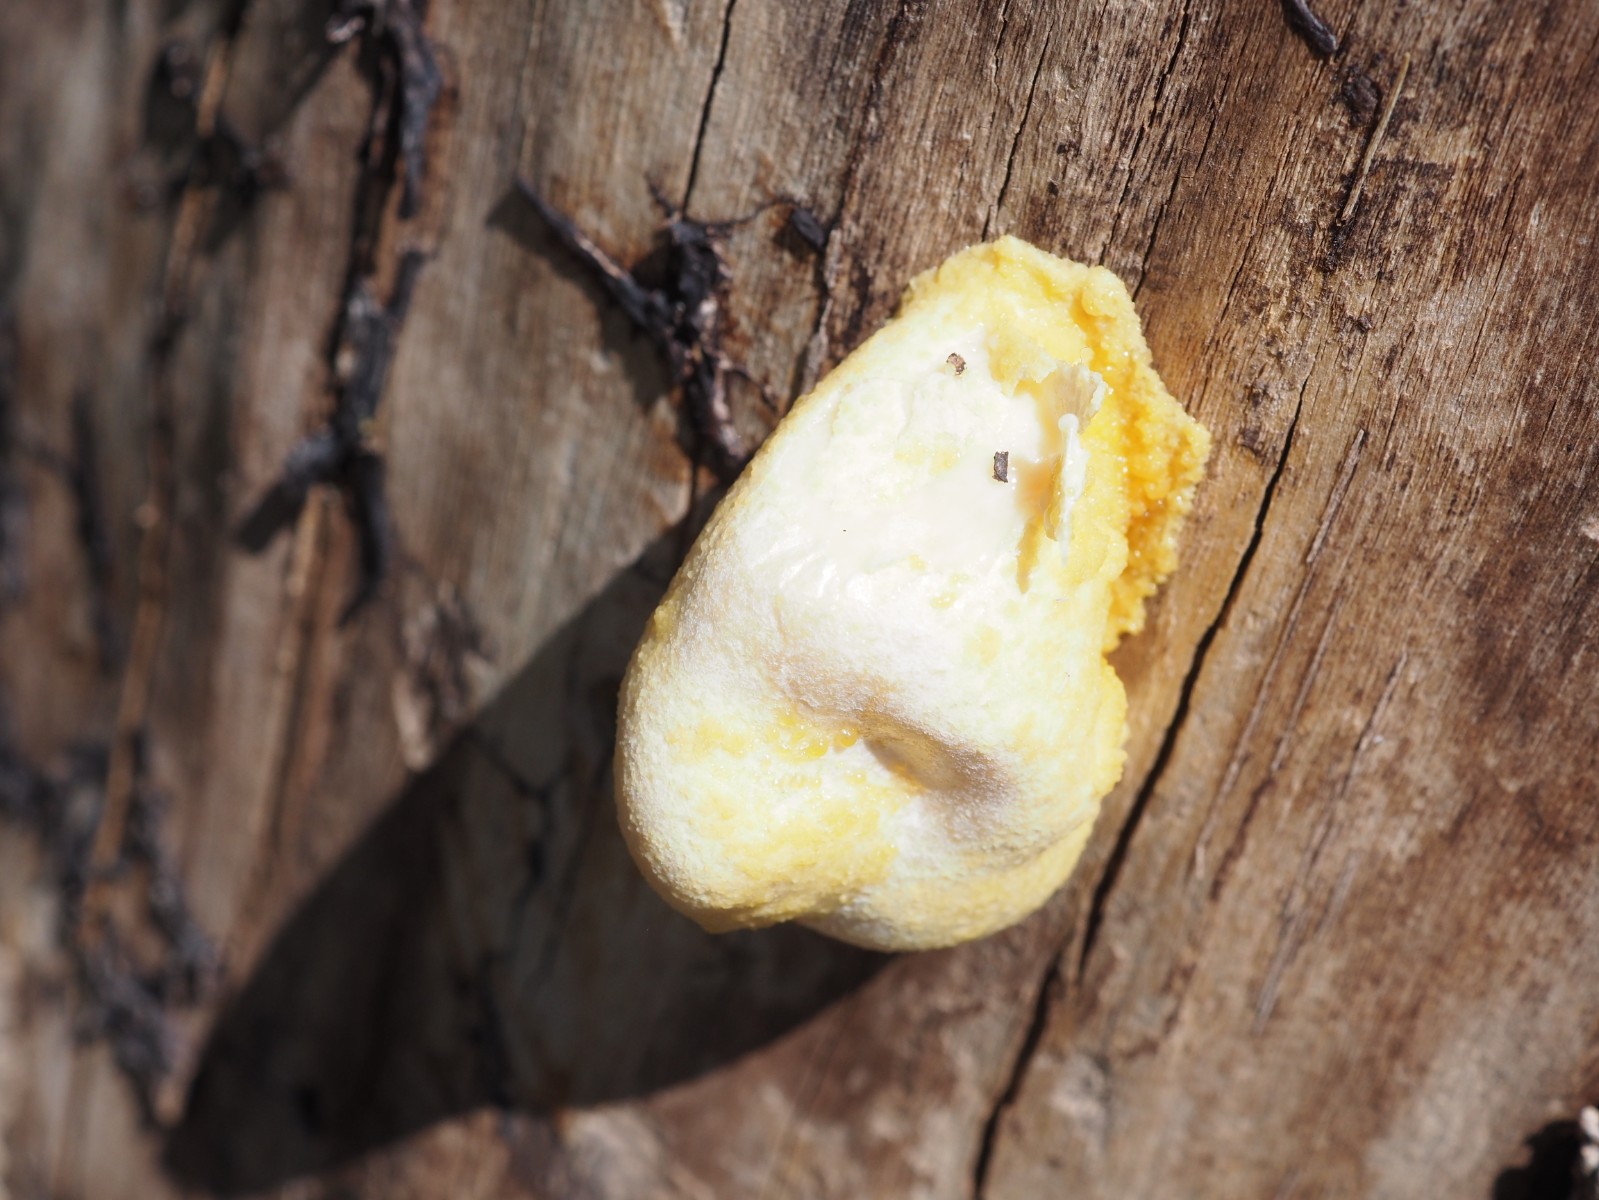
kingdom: Protozoa
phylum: Mycetozoa
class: Myxomycetes
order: Cribrariales
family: Tubiferaceae
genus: Reticularia
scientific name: Reticularia lycoperdon
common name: skinnende støvpude
